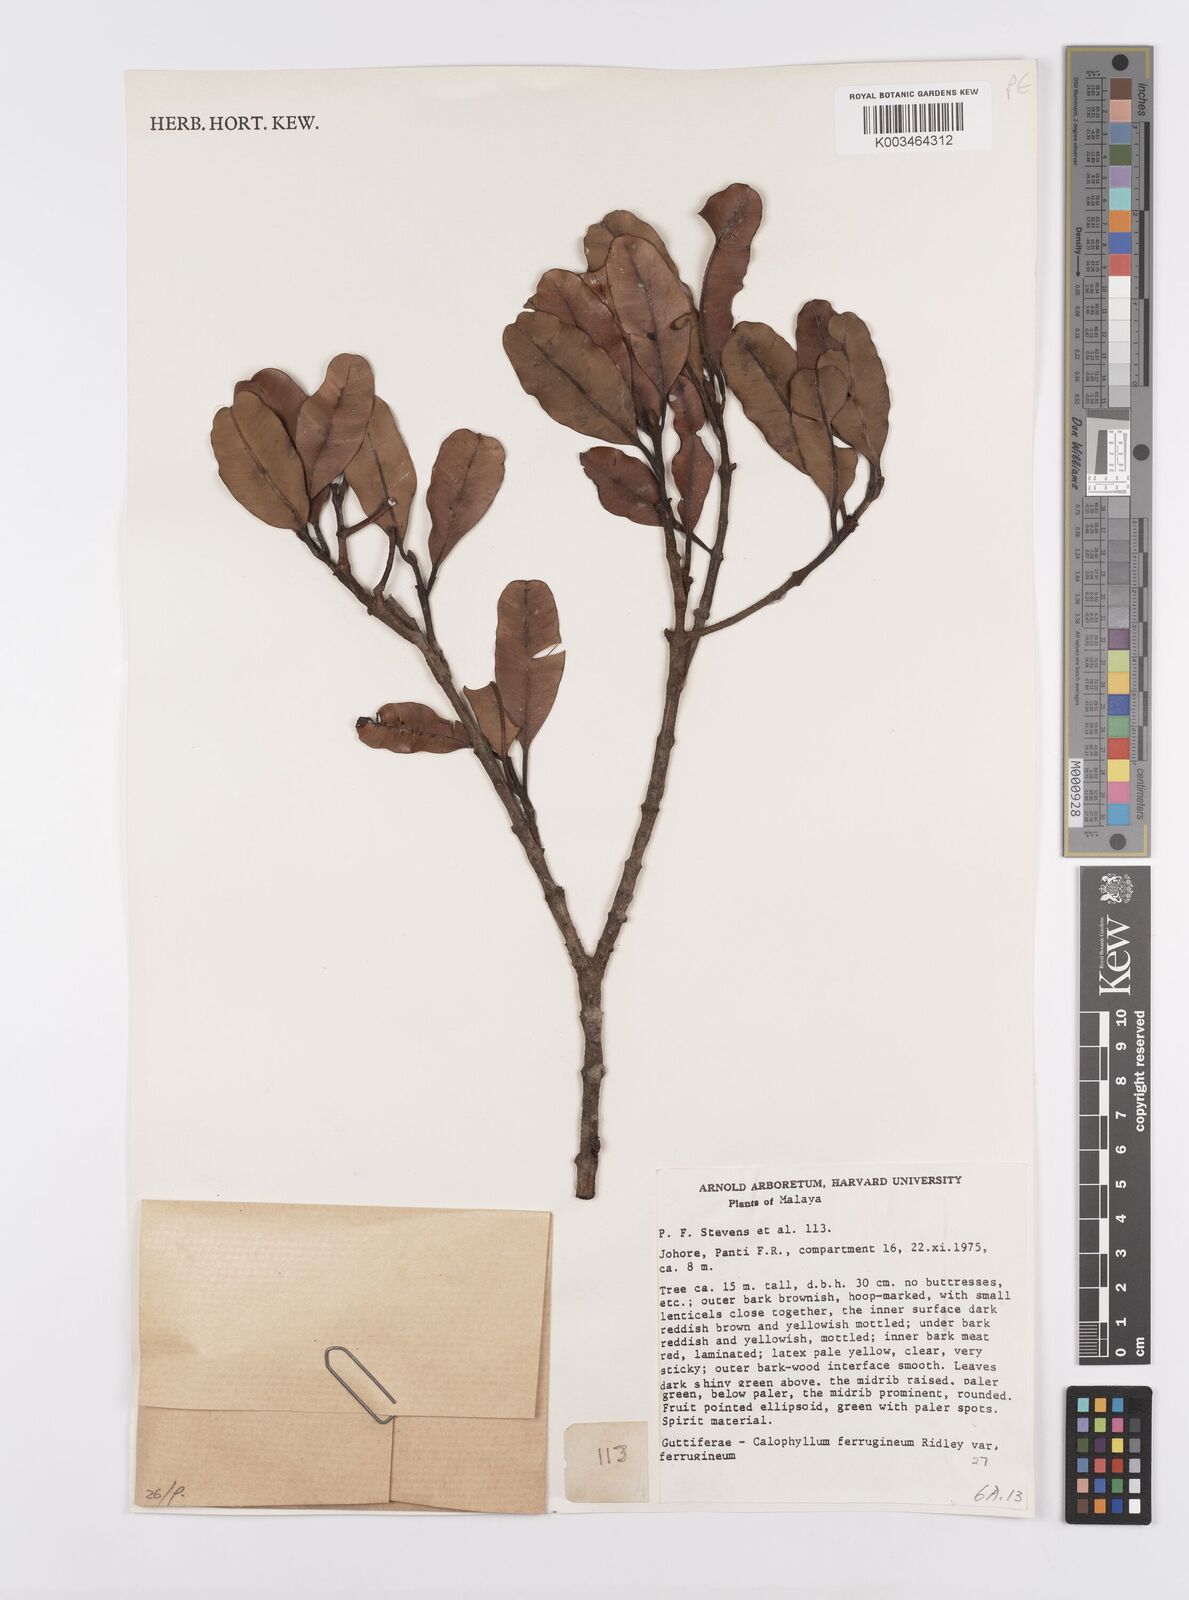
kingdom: Plantae
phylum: Tracheophyta
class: Magnoliopsida
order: Malpighiales
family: Calophyllaceae
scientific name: Calophyllaceae
